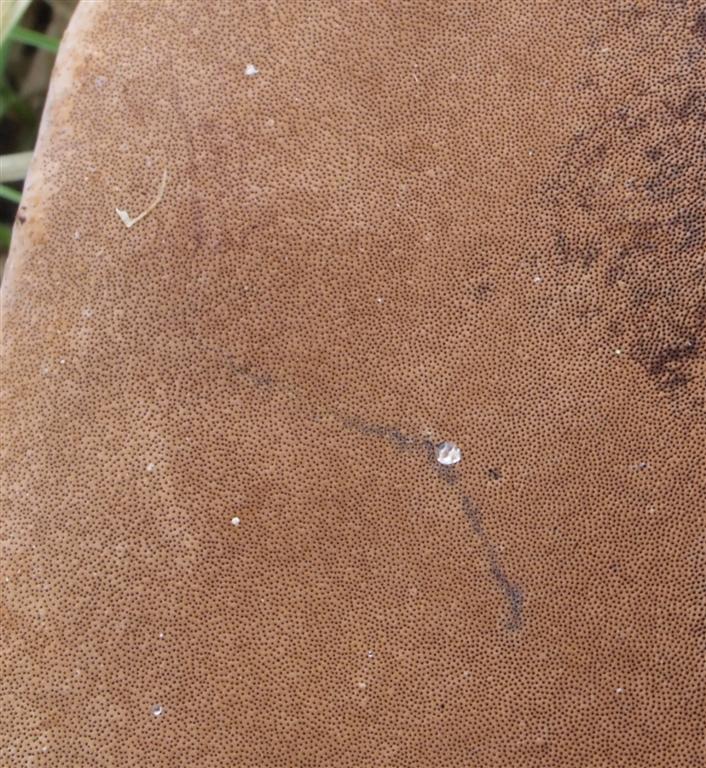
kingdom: Fungi
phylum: Basidiomycota
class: Agaricomycetes
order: Hymenochaetales
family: Hymenochaetaceae
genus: Phellinus
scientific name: Phellinus igniarius
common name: almindelig ildporesvamp
